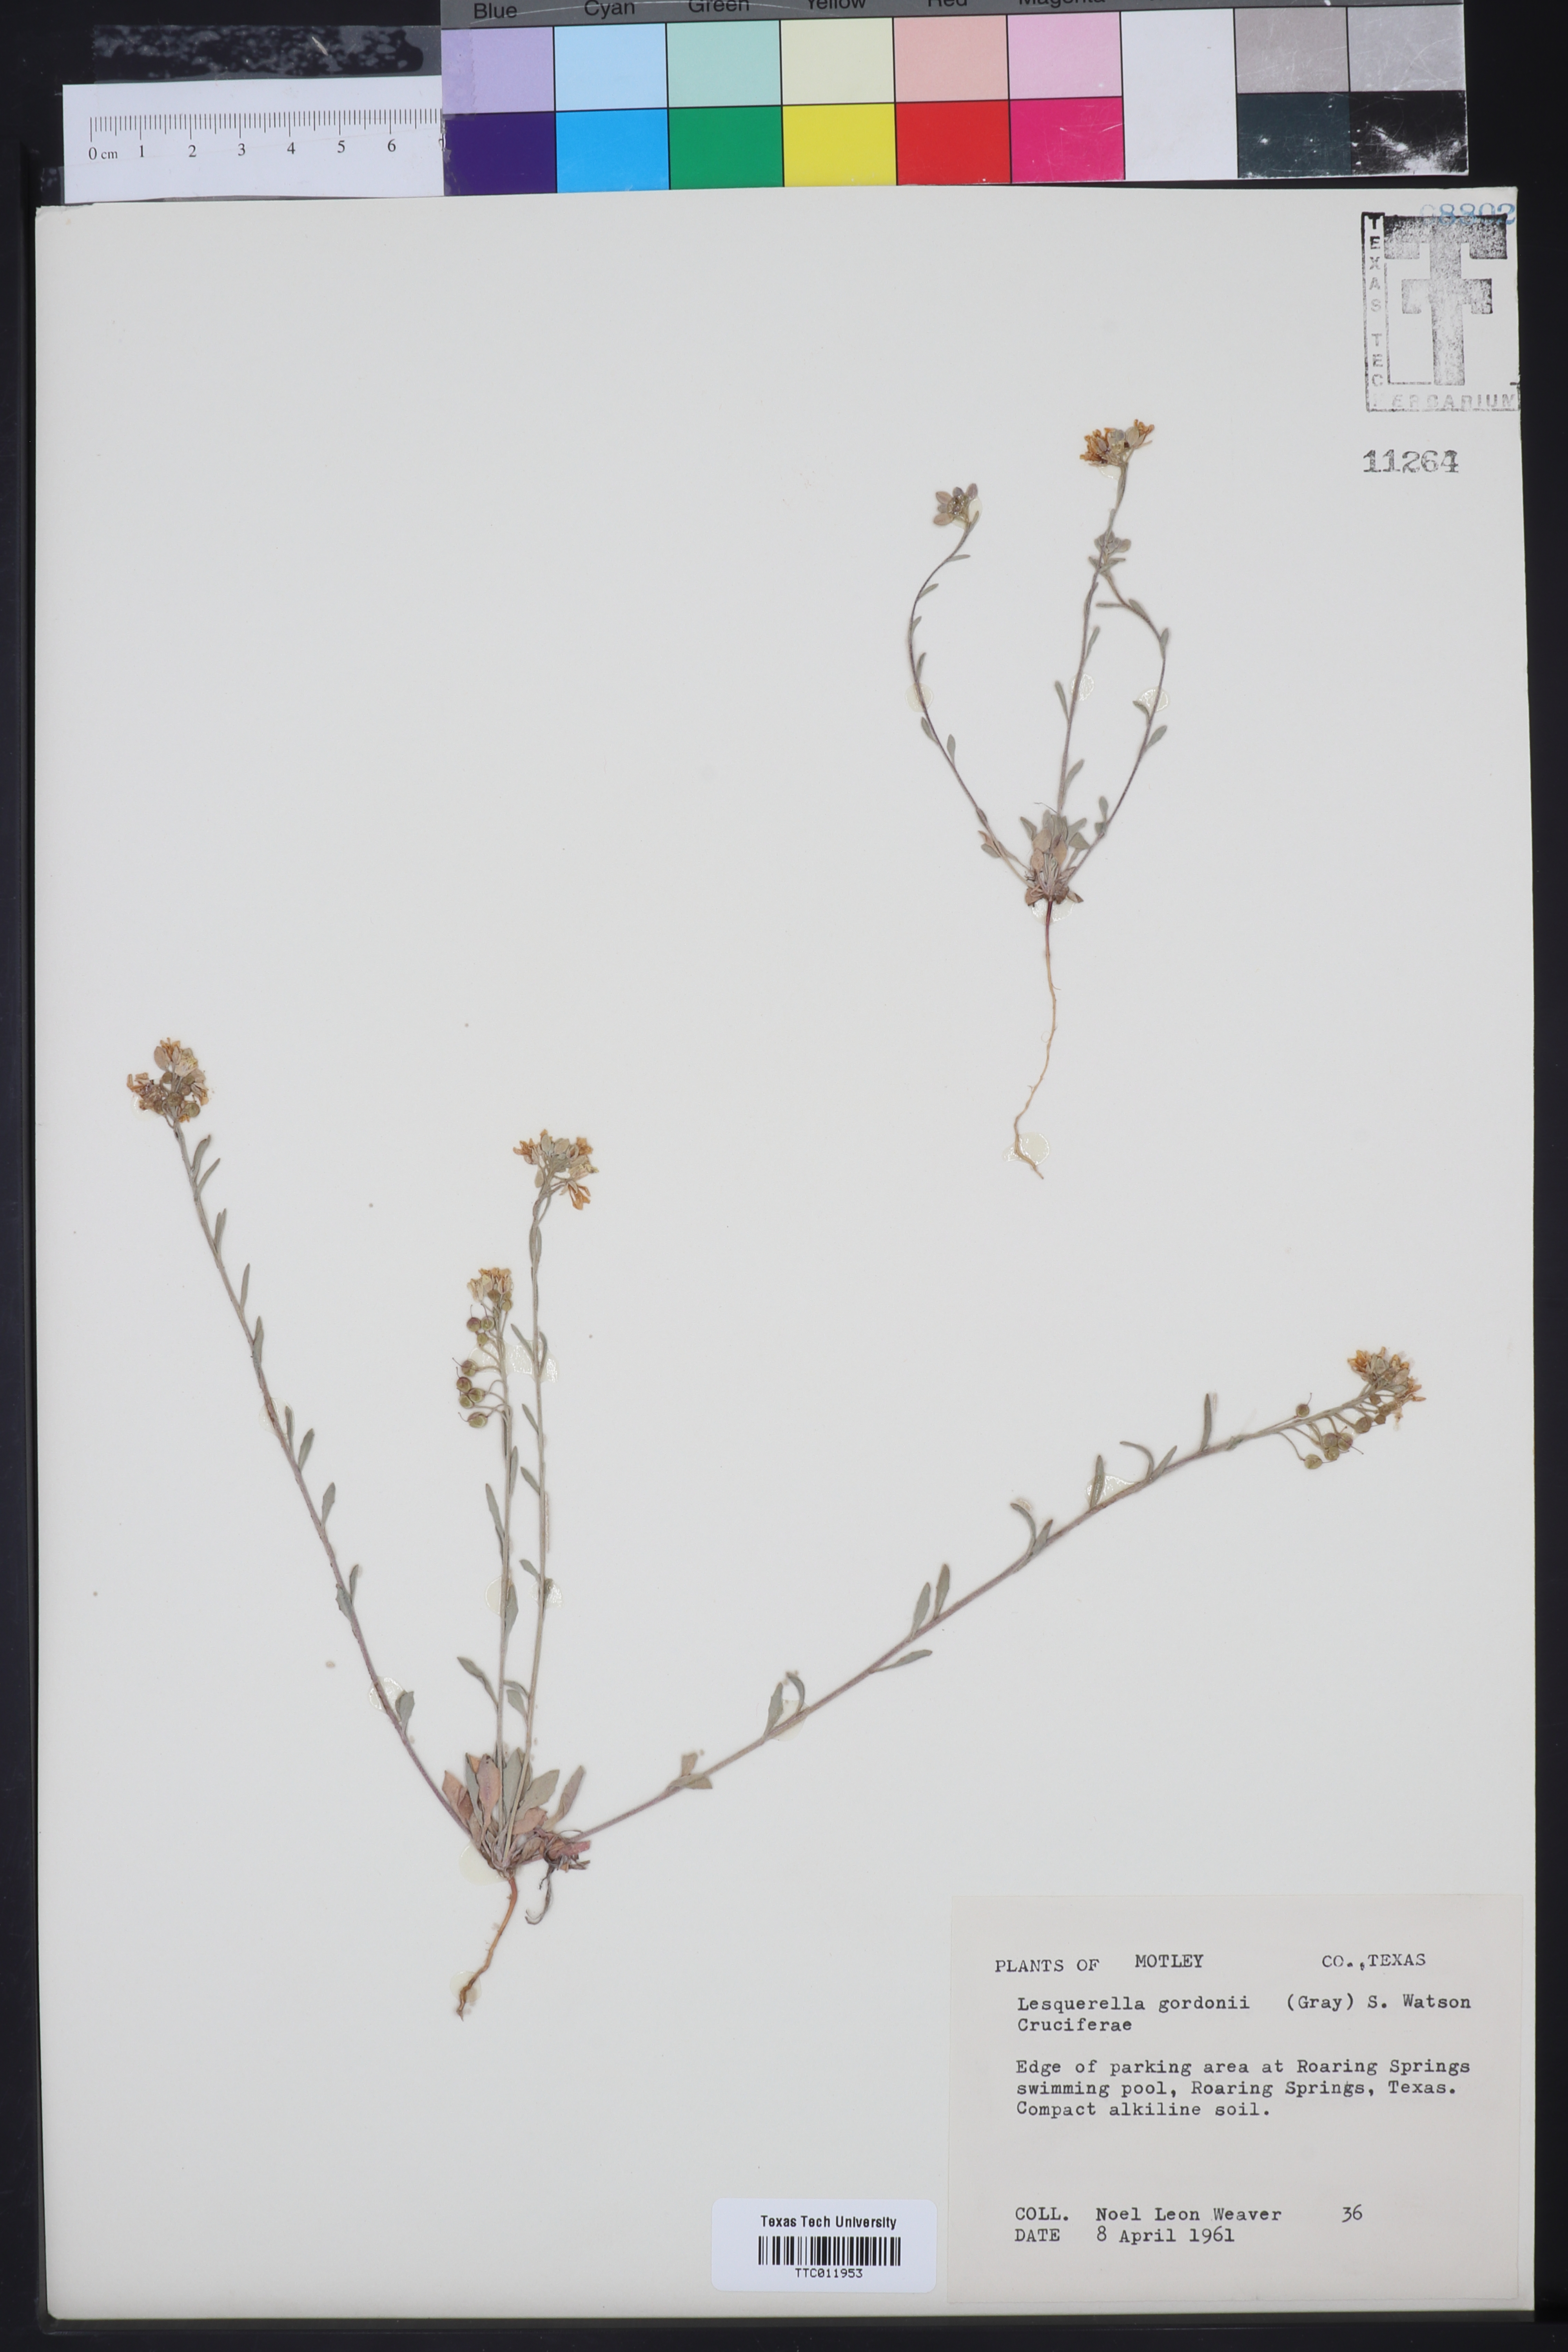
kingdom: Plantae
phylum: Tracheophyta
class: Magnoliopsida
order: Brassicales
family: Brassicaceae
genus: Physaria
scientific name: Physaria gordonii
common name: Gordon's bladderpod
